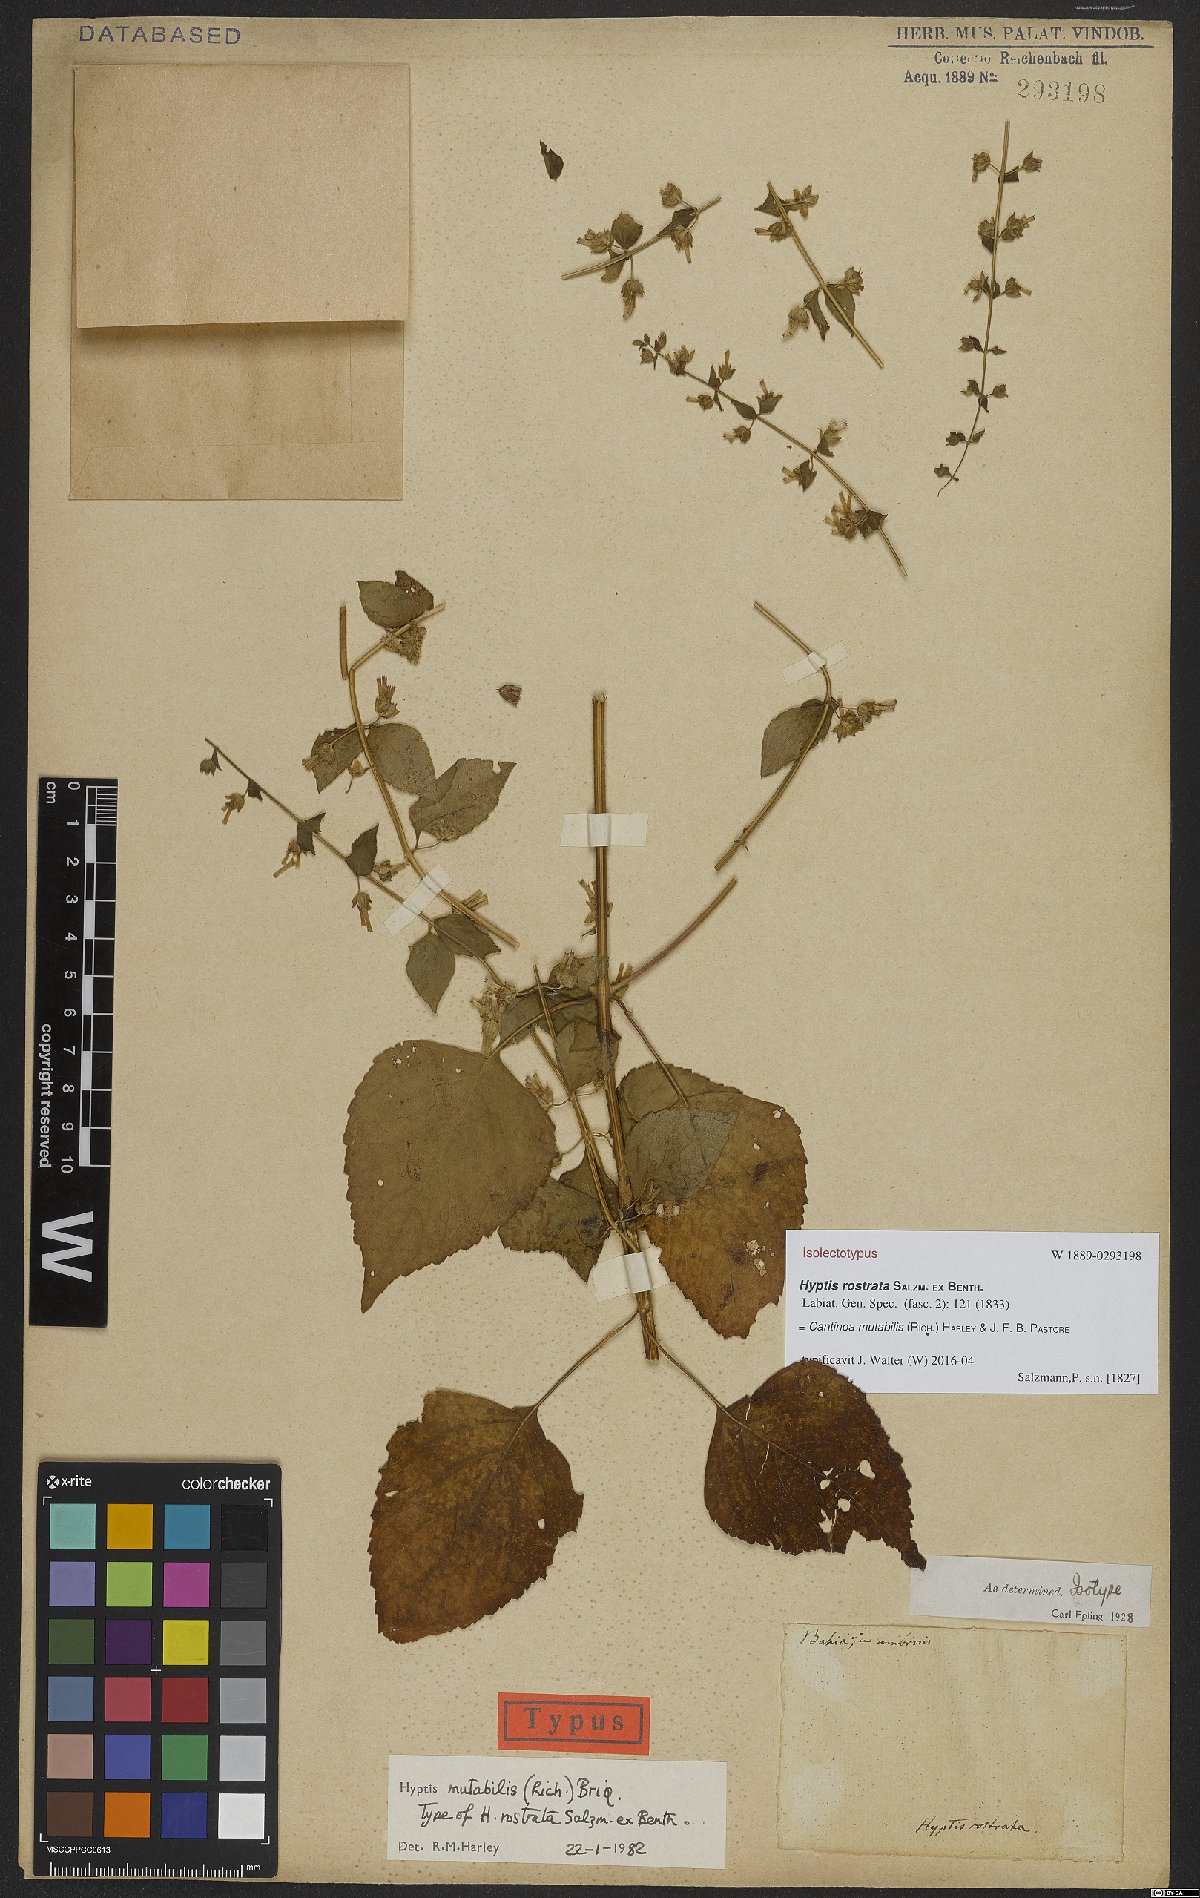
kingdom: Plantae
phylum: Tracheophyta
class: Magnoliopsida
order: Lamiales
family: Lamiaceae
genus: Cantinoa
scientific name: Cantinoa mutabilis
